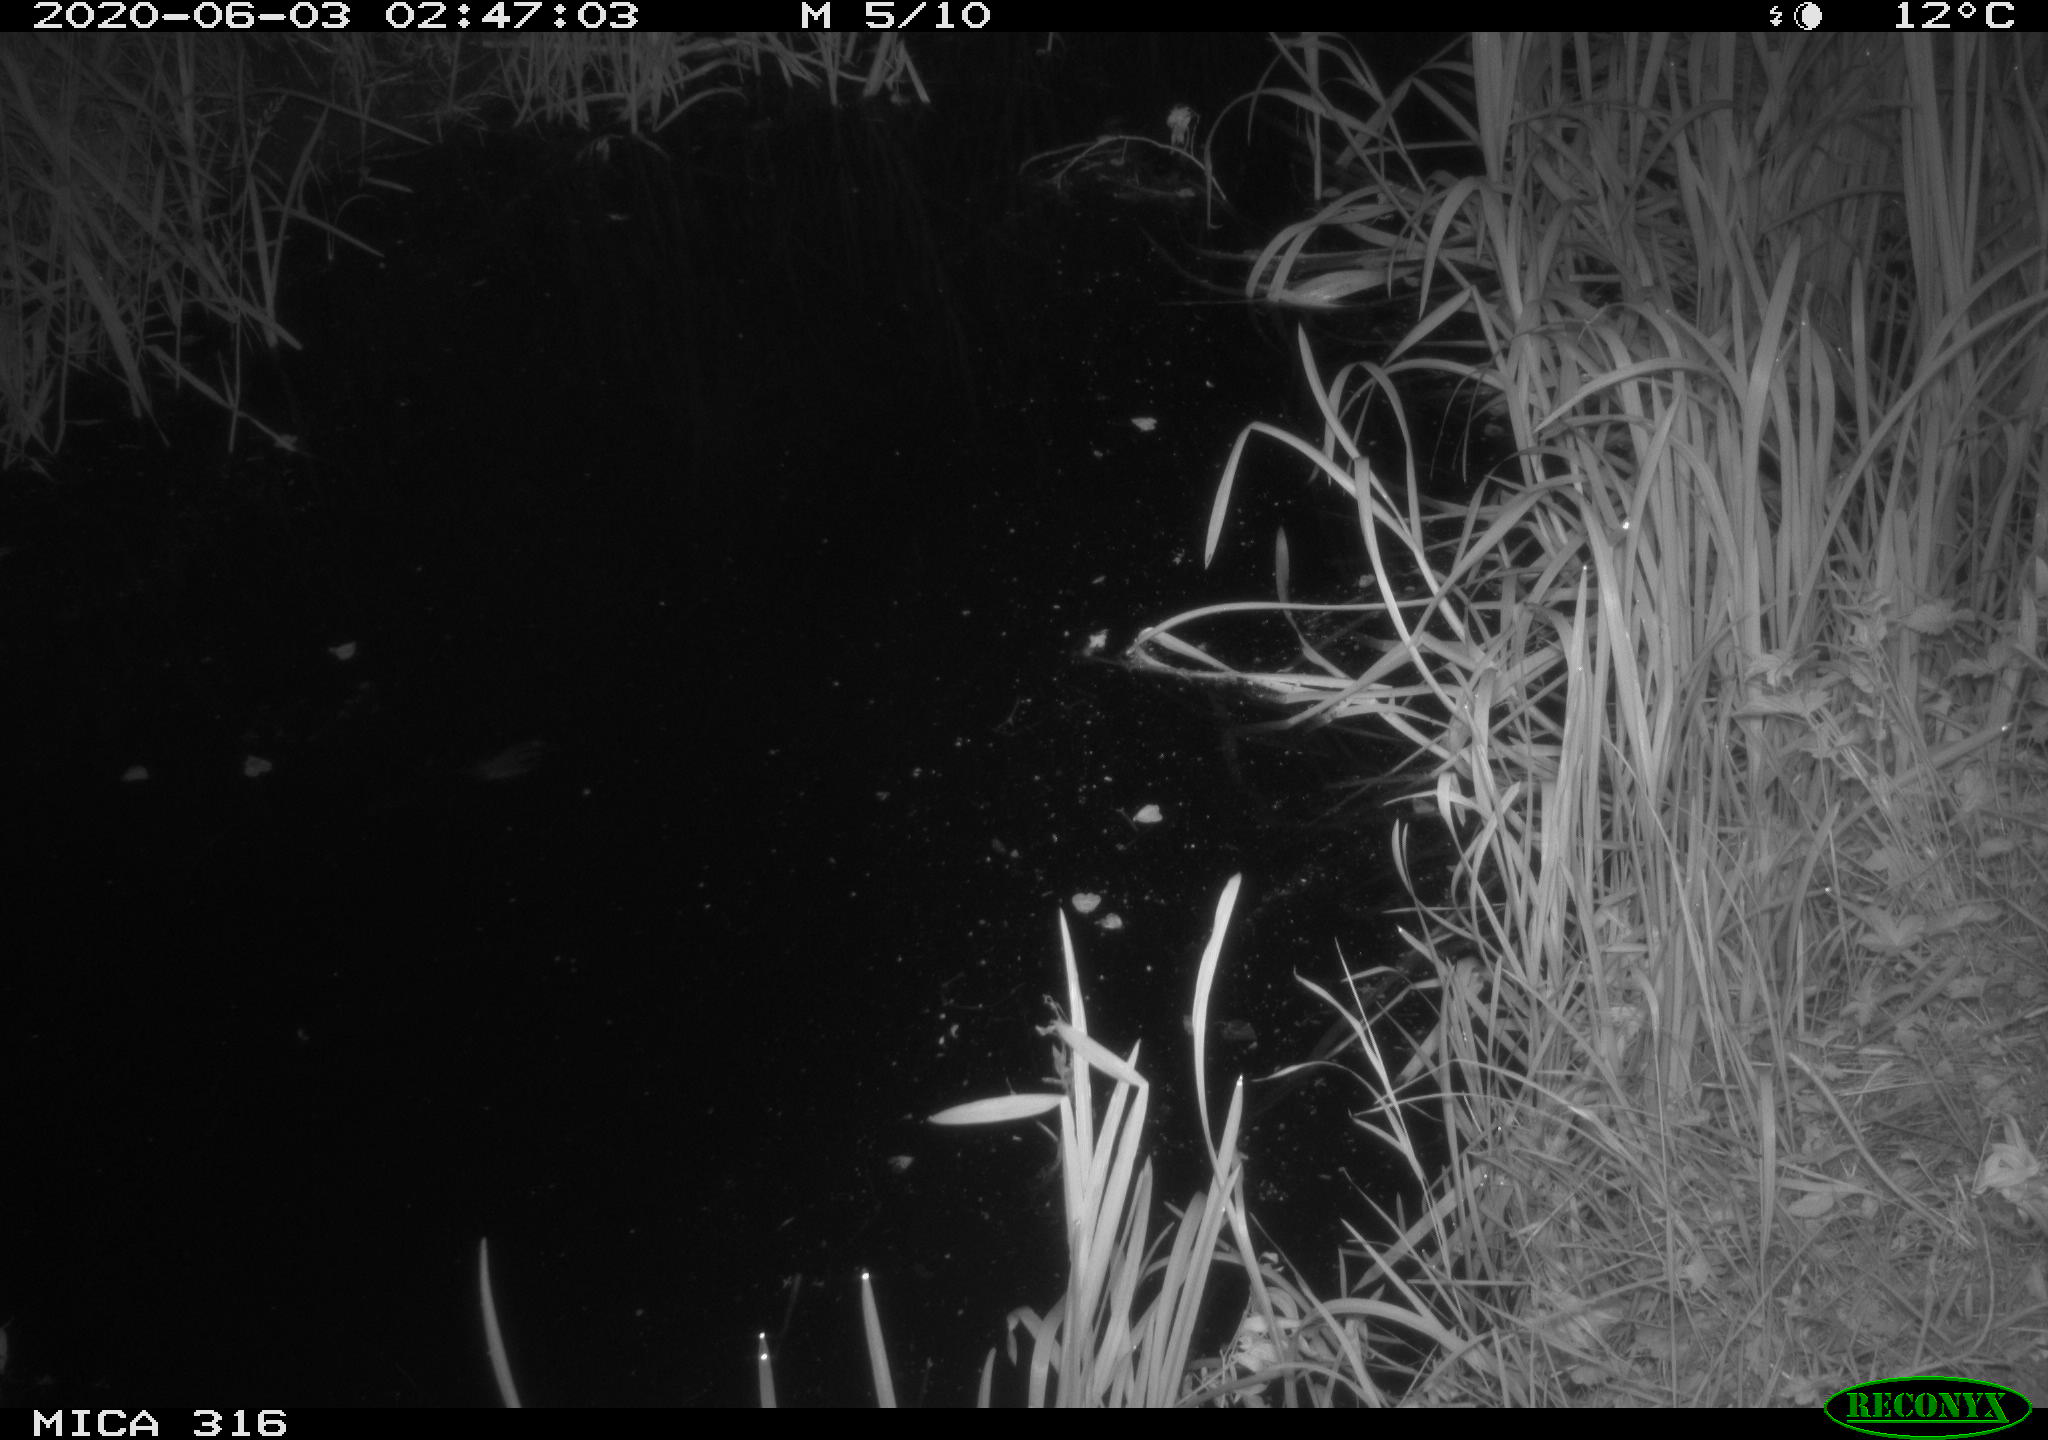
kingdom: Animalia
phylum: Chordata
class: Aves
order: Anseriformes
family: Anatidae
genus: Anas
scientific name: Anas platyrhynchos
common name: Mallard
